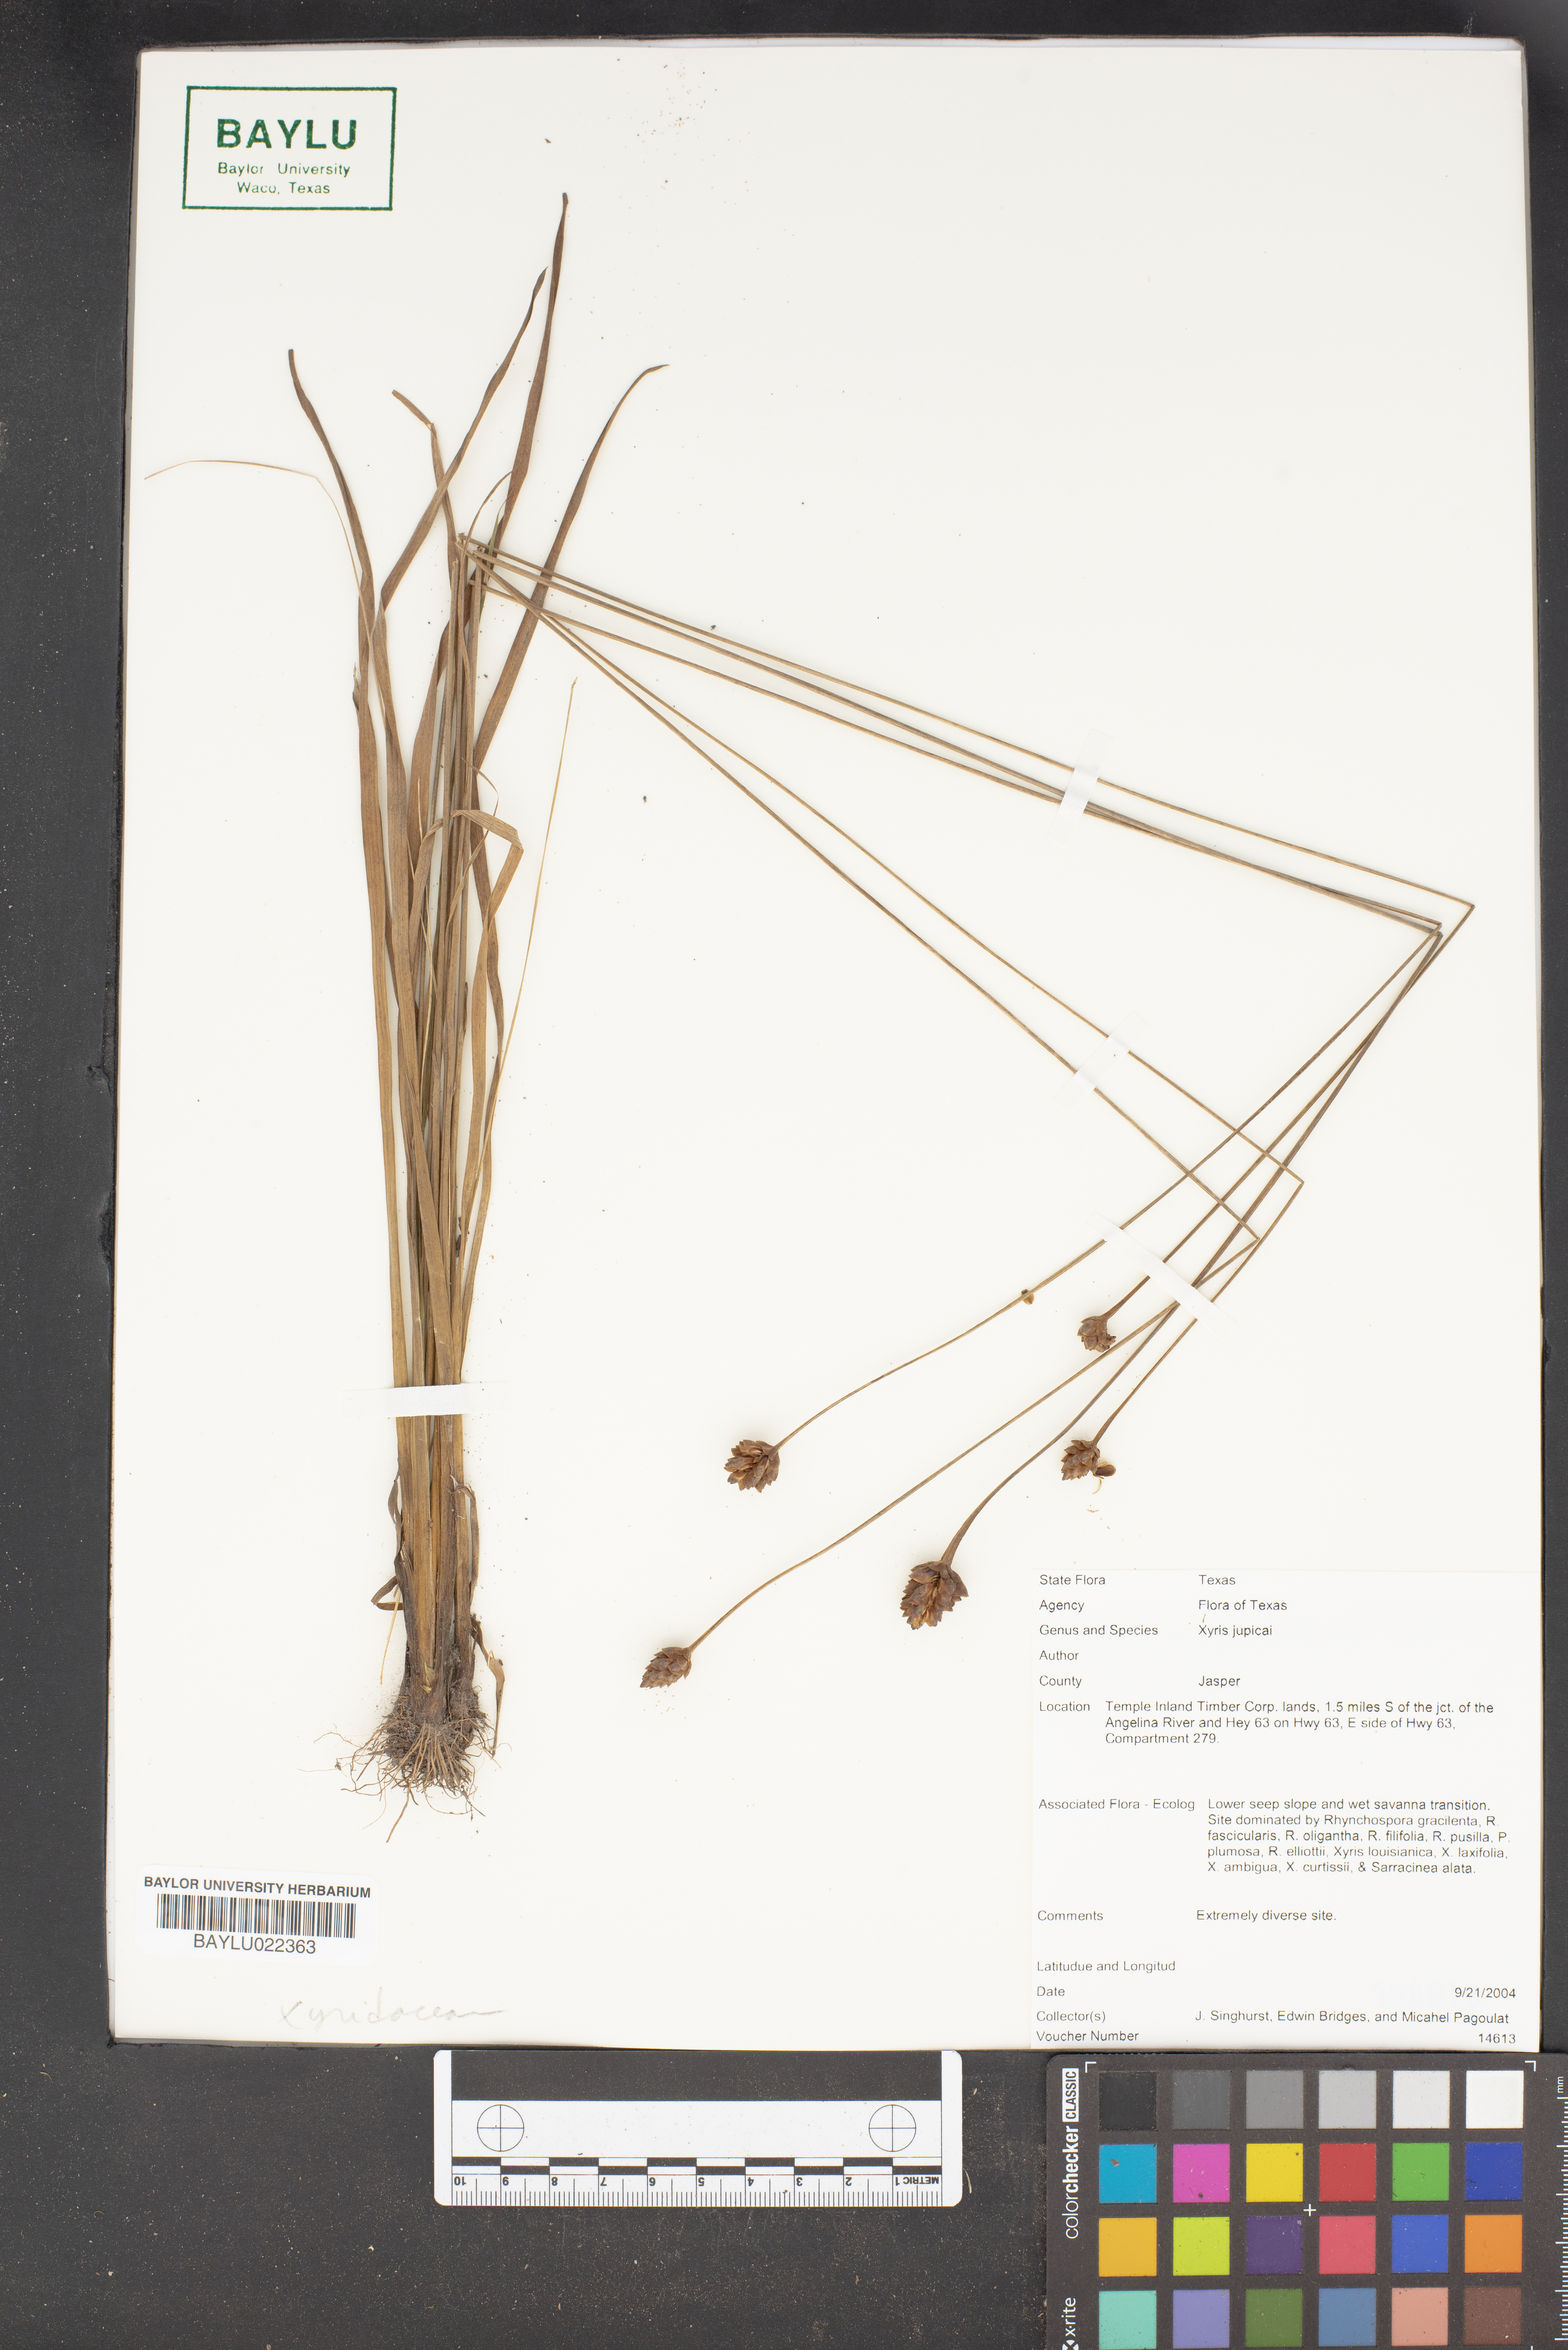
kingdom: Plantae
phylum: Tracheophyta
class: Liliopsida
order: Poales
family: Xyridaceae
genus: Xyris
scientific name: Xyris jupicai
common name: Richard's yelloweyed grass
